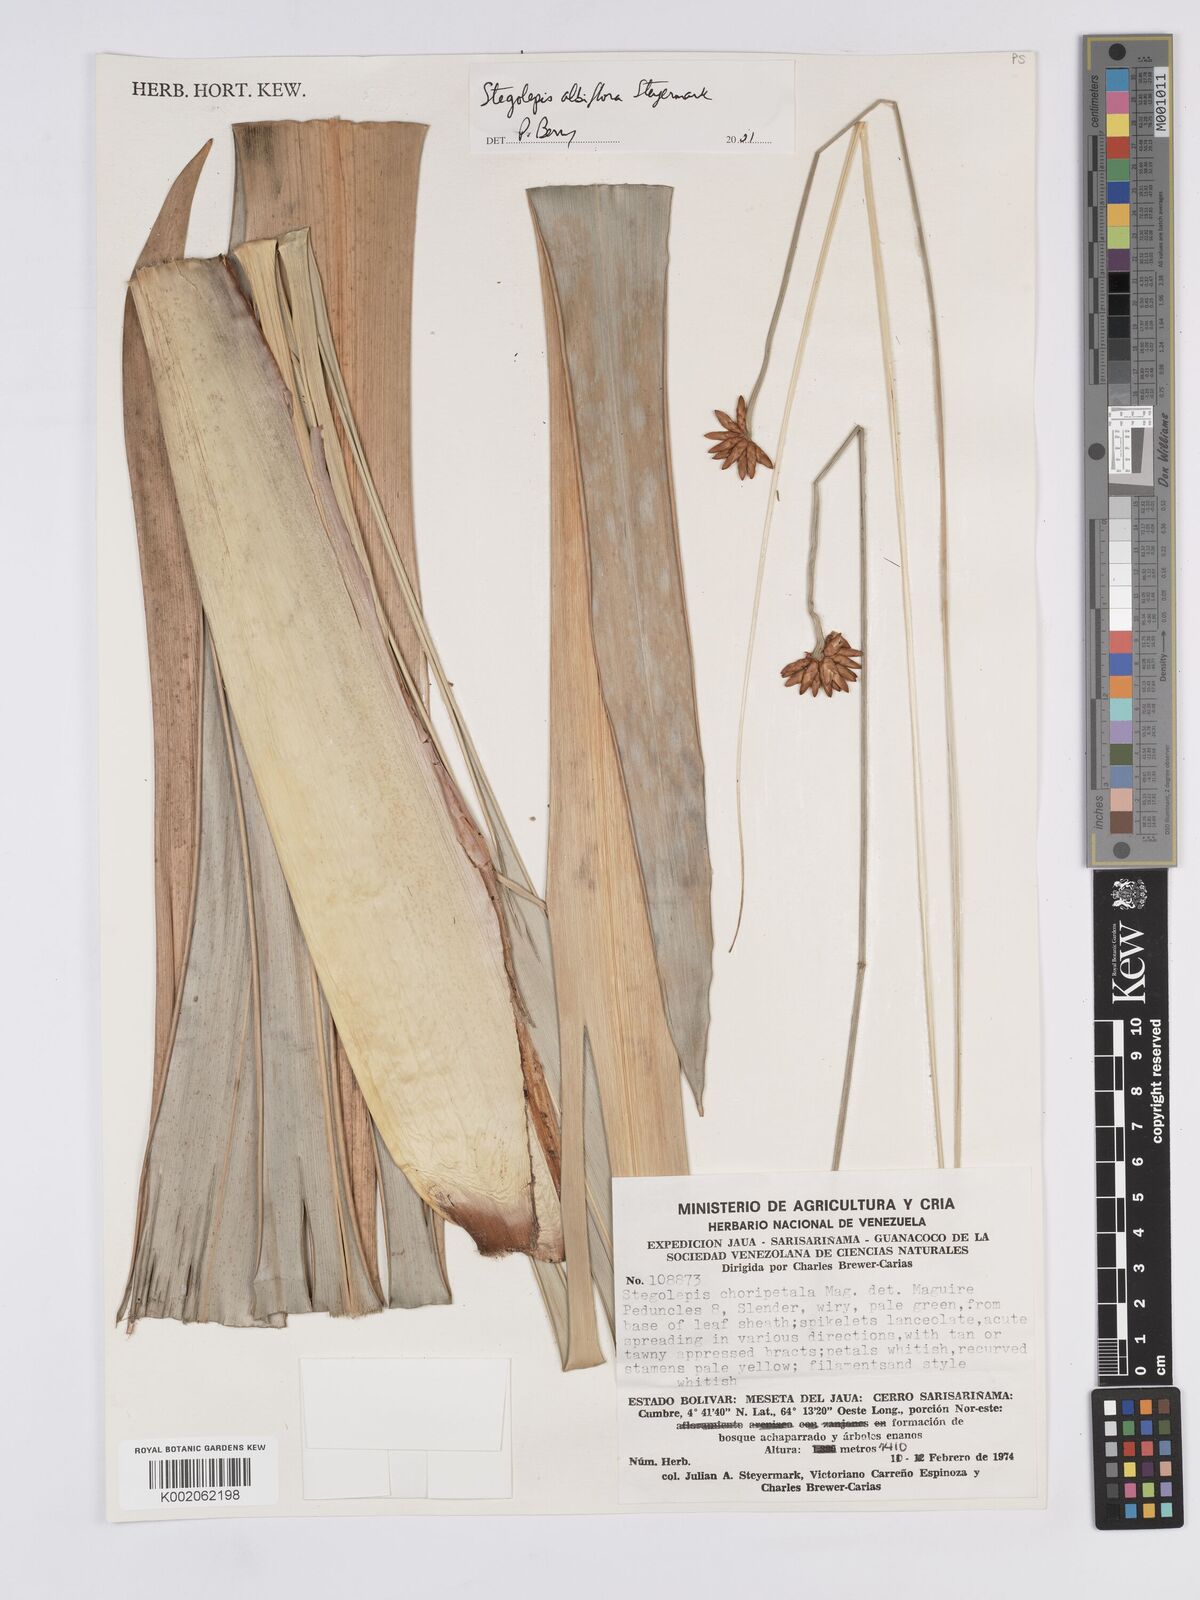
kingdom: Plantae
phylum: Tracheophyta
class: Liliopsida
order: Poales
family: Rapateaceae
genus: Stegolepis
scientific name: Stegolepis albiflora
